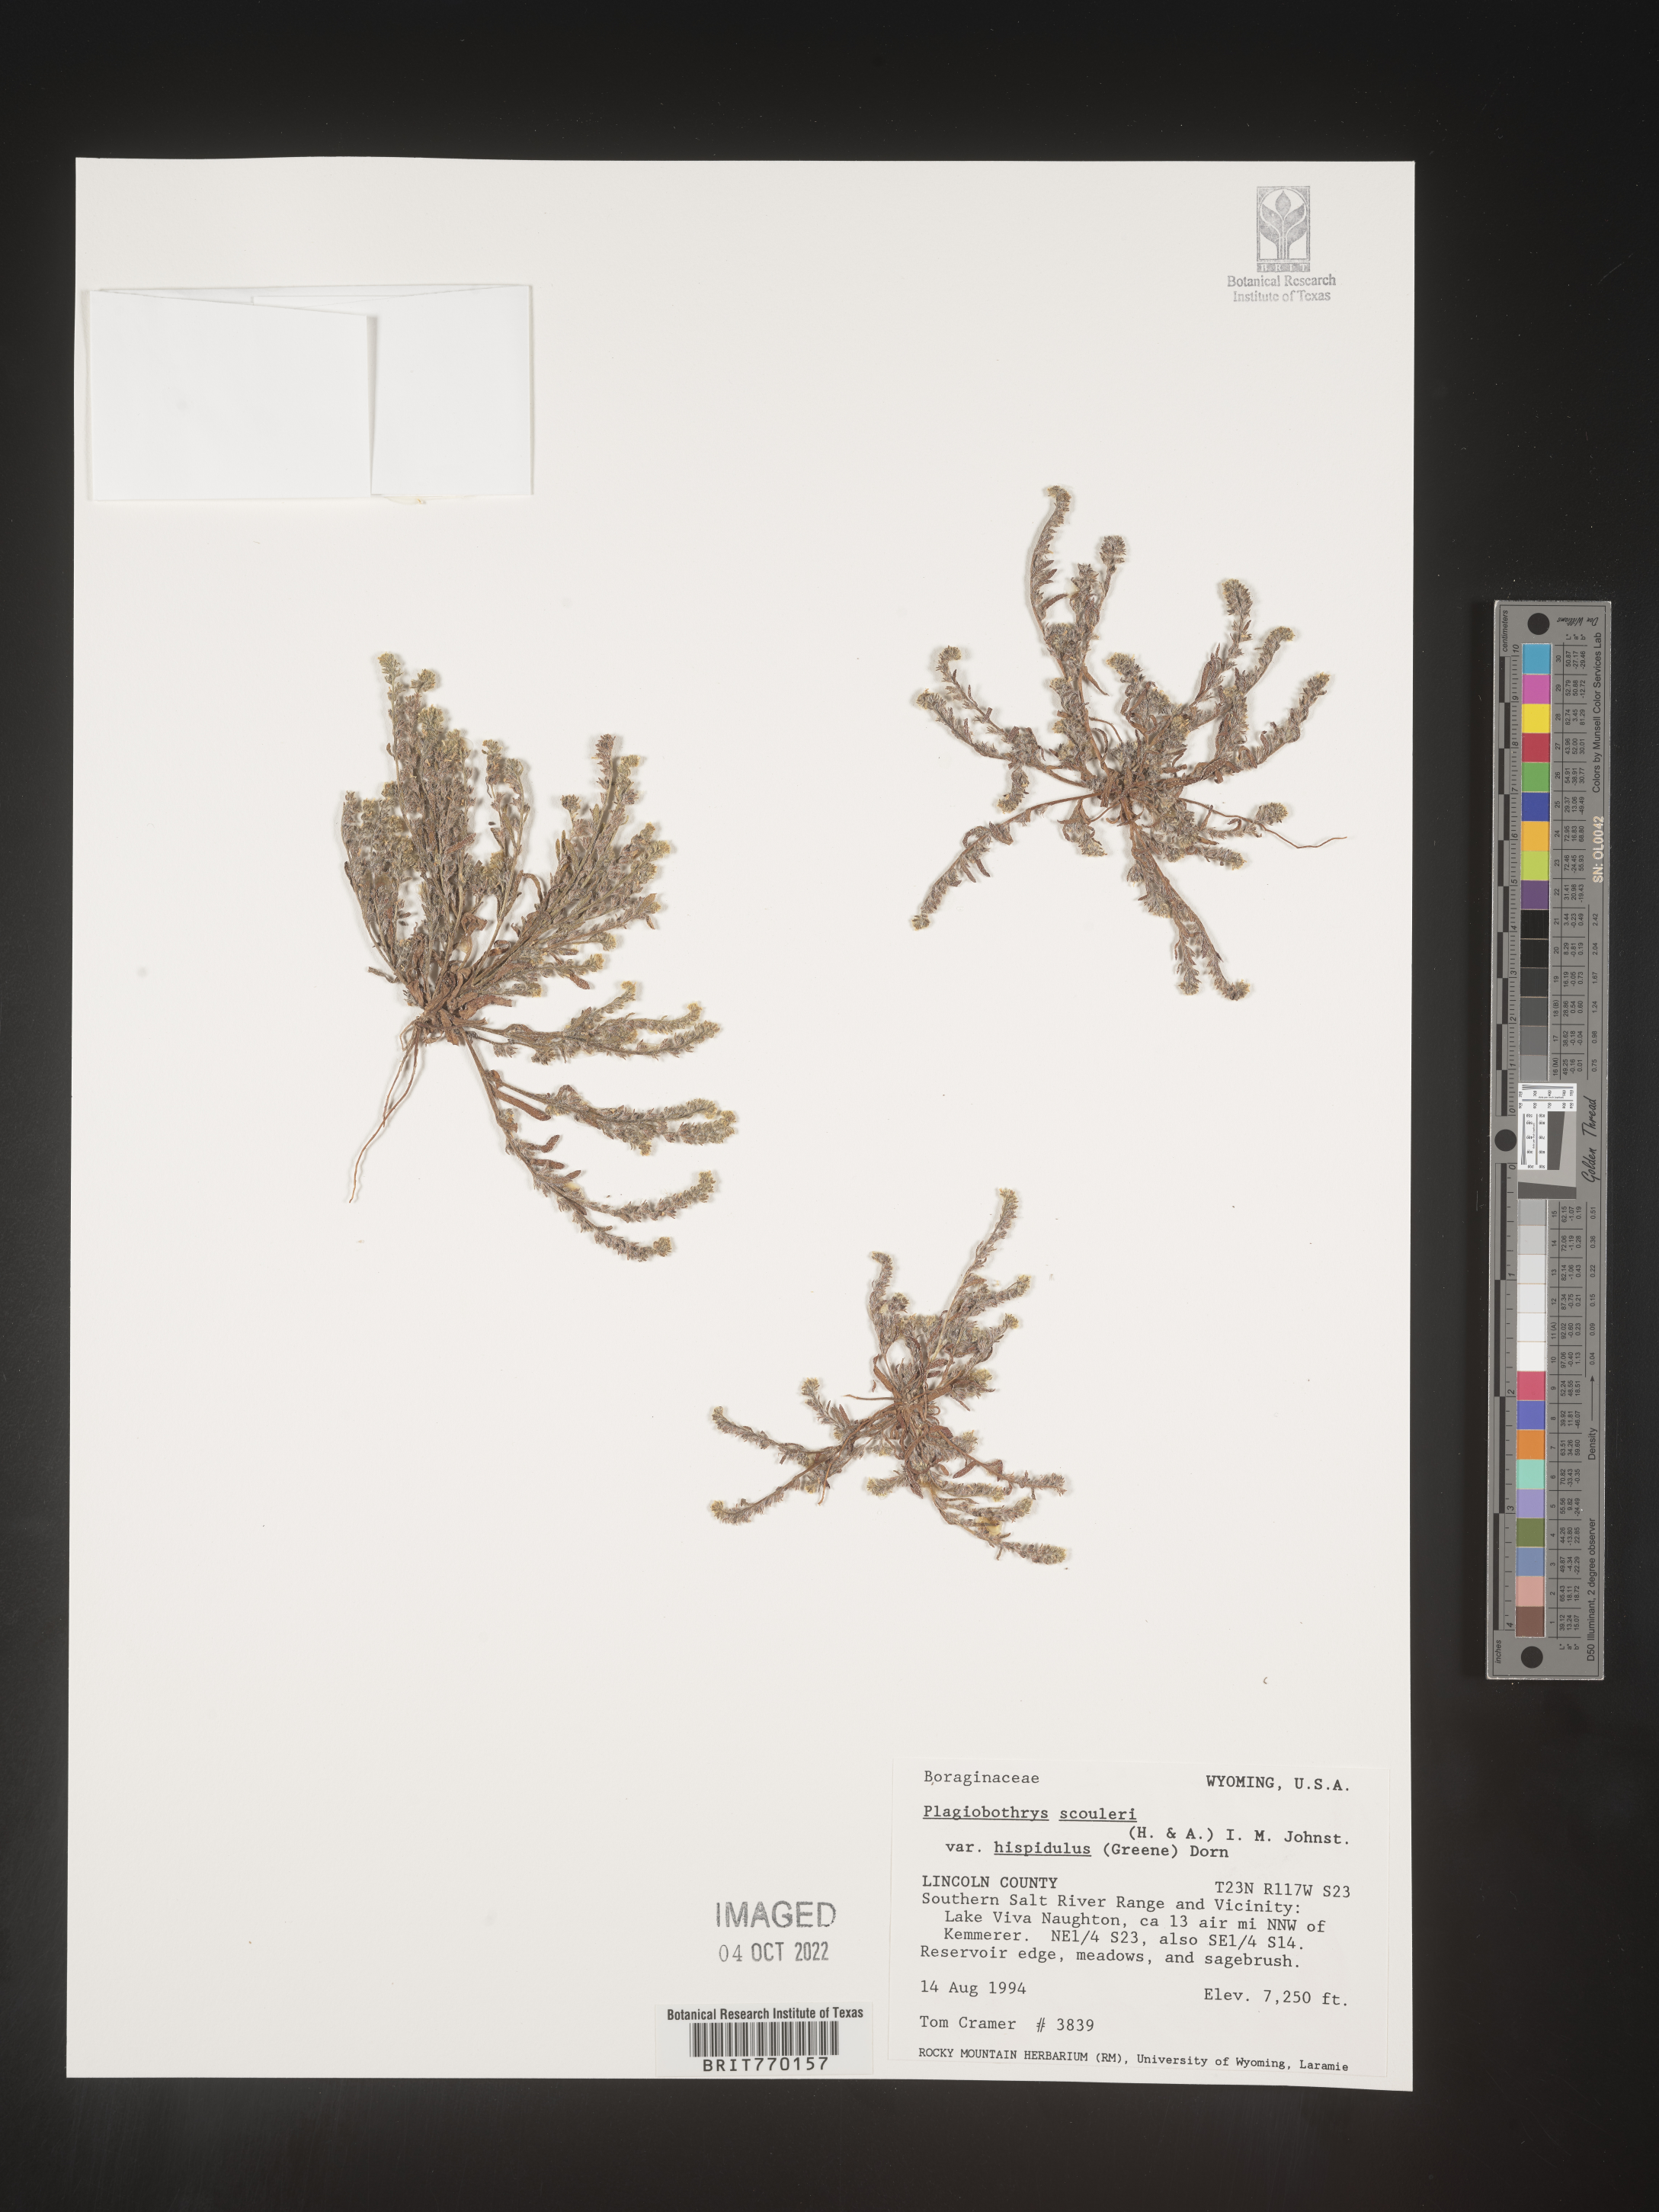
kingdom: Plantae
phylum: Tracheophyta
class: Magnoliopsida
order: Boraginales
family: Boraginaceae
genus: Plagiobothrys
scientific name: Plagiobothrys
